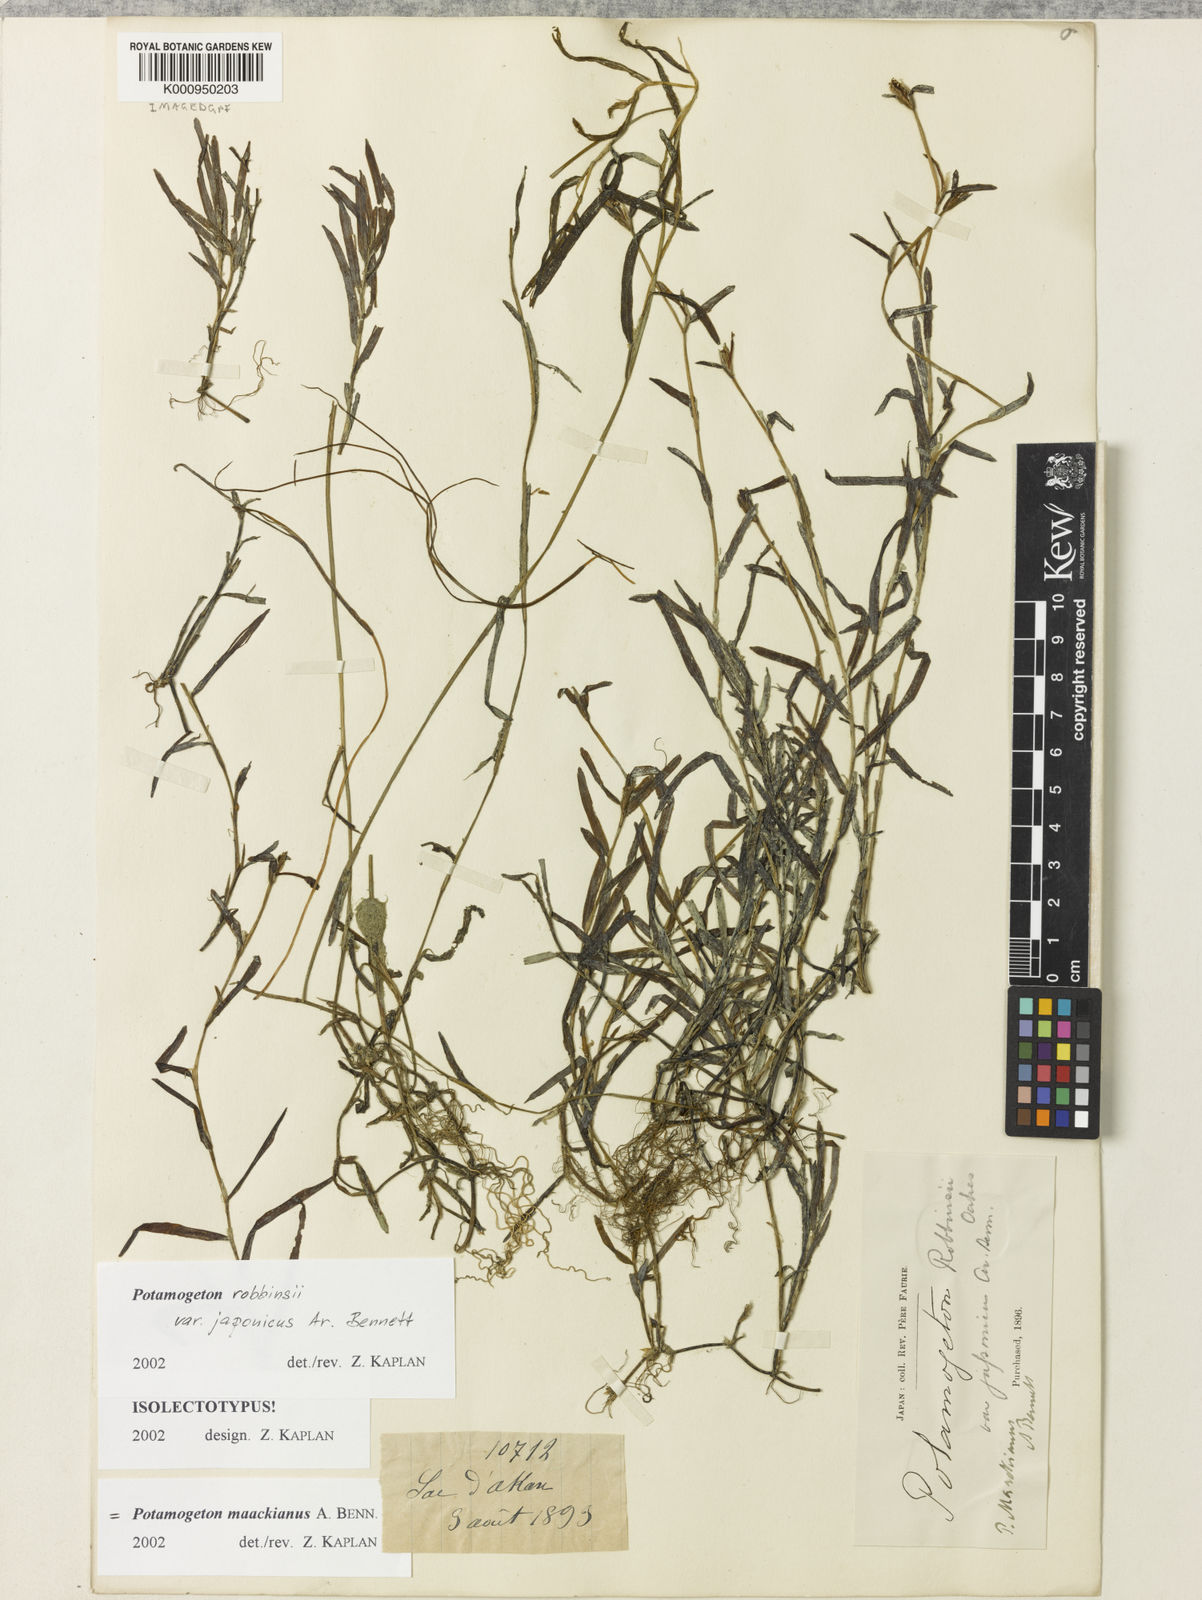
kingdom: Plantae
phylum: Tracheophyta
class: Liliopsida
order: Alismatales
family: Potamogetonaceae
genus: Potamogeton
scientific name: Potamogeton maackianus
